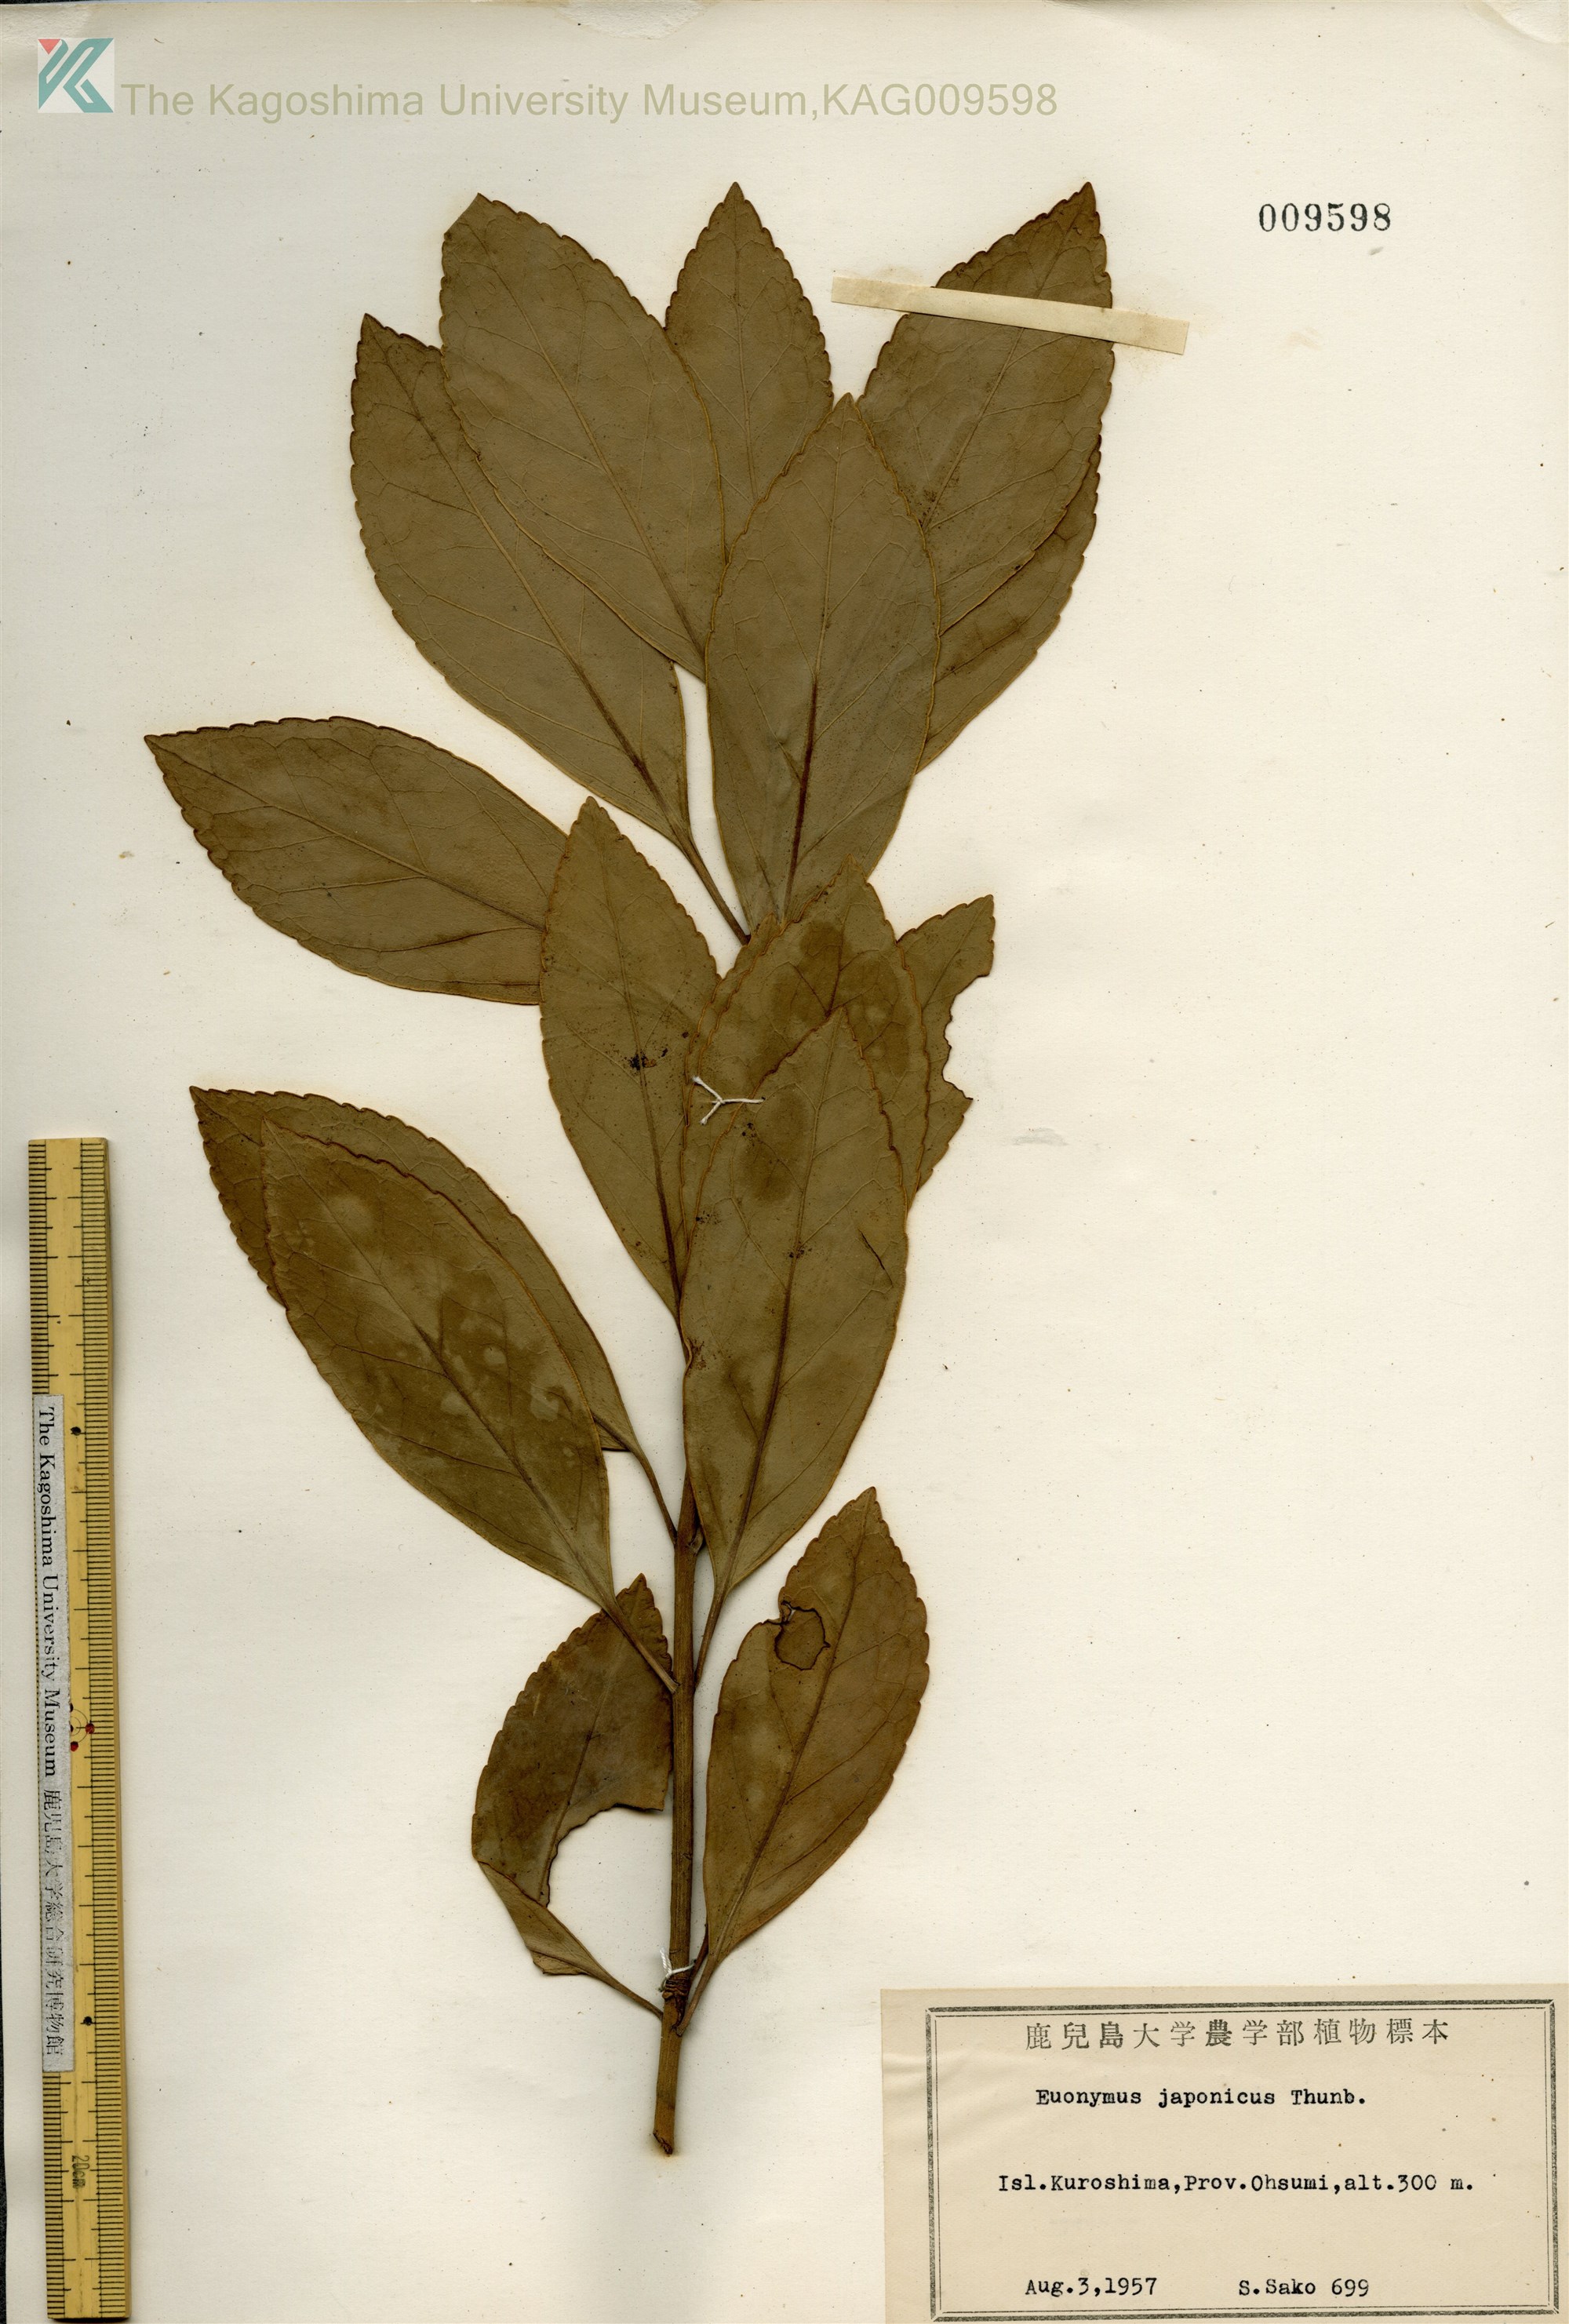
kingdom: Plantae
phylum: Tracheophyta
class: Magnoliopsida
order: Celastrales
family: Celastraceae
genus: Euonymus
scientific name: Euonymus japonicus
